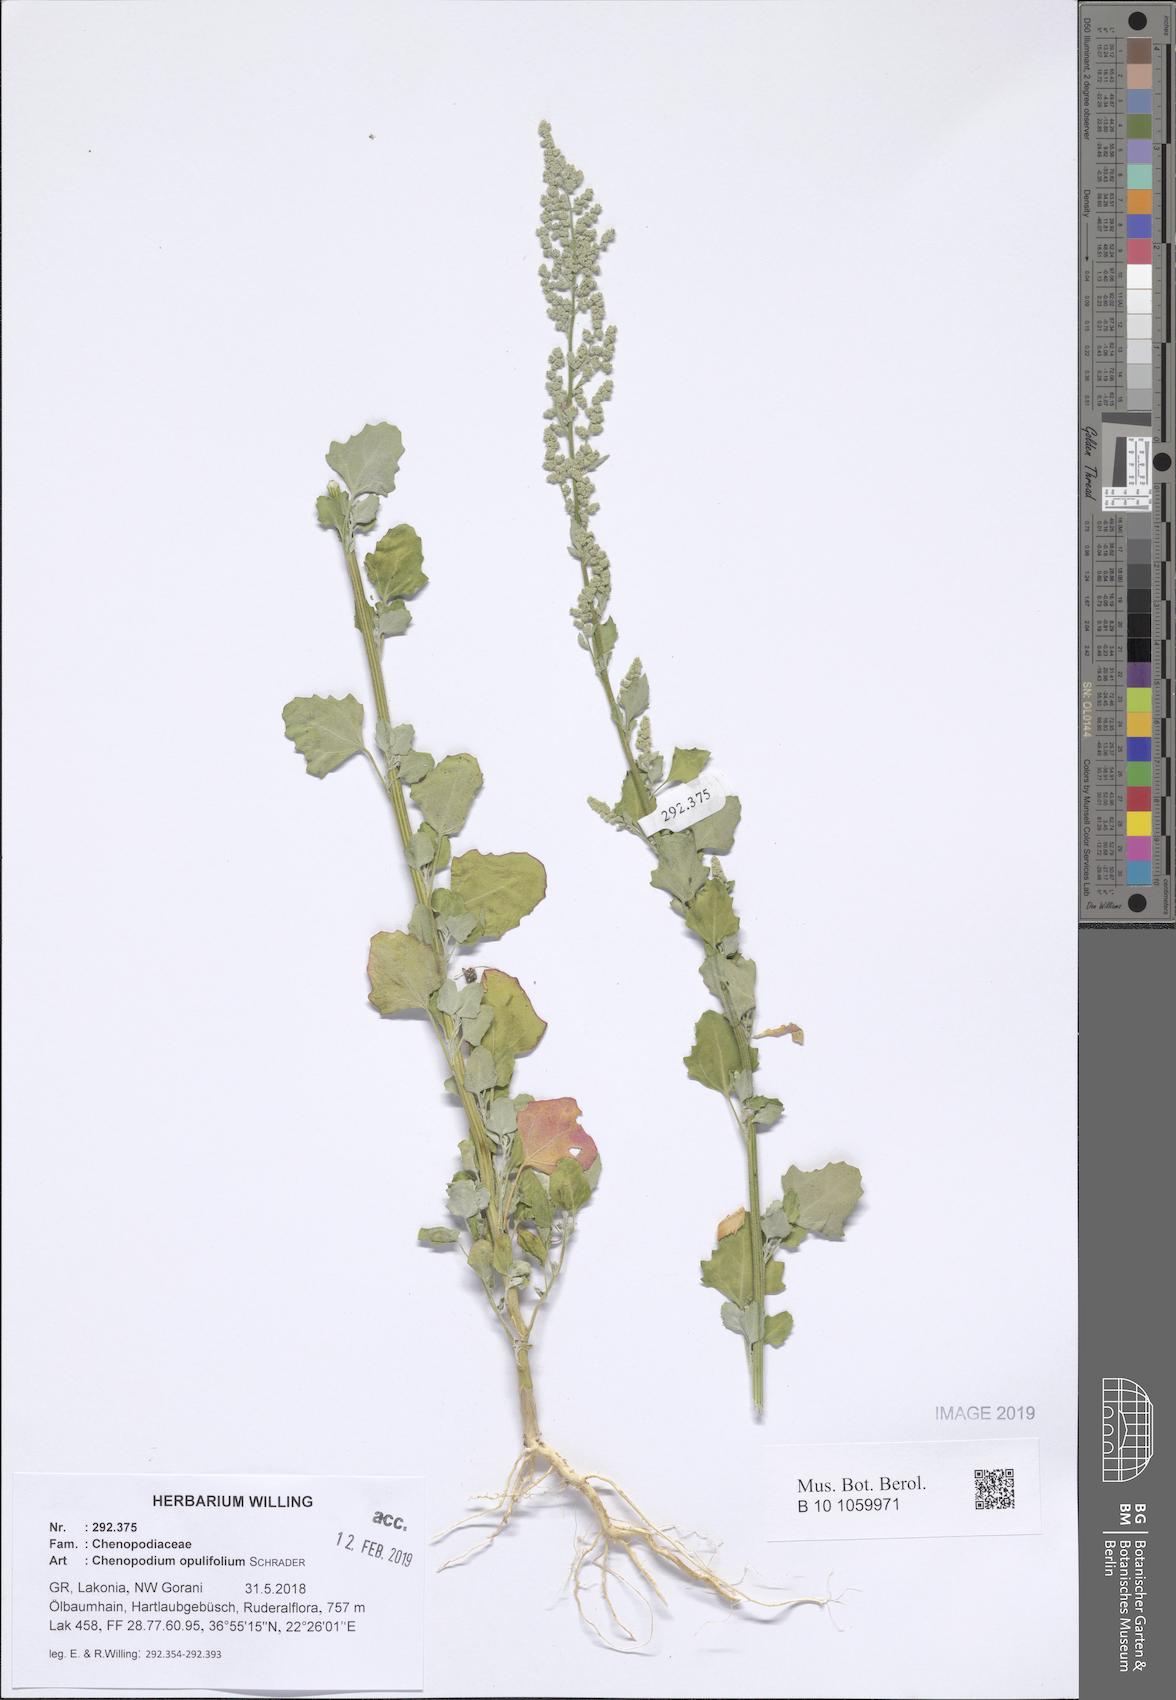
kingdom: Plantae
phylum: Tracheophyta
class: Magnoliopsida
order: Caryophyllales
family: Amaranthaceae
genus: Chenopodium
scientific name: Chenopodium opulifolium
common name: Grey goosefoot
